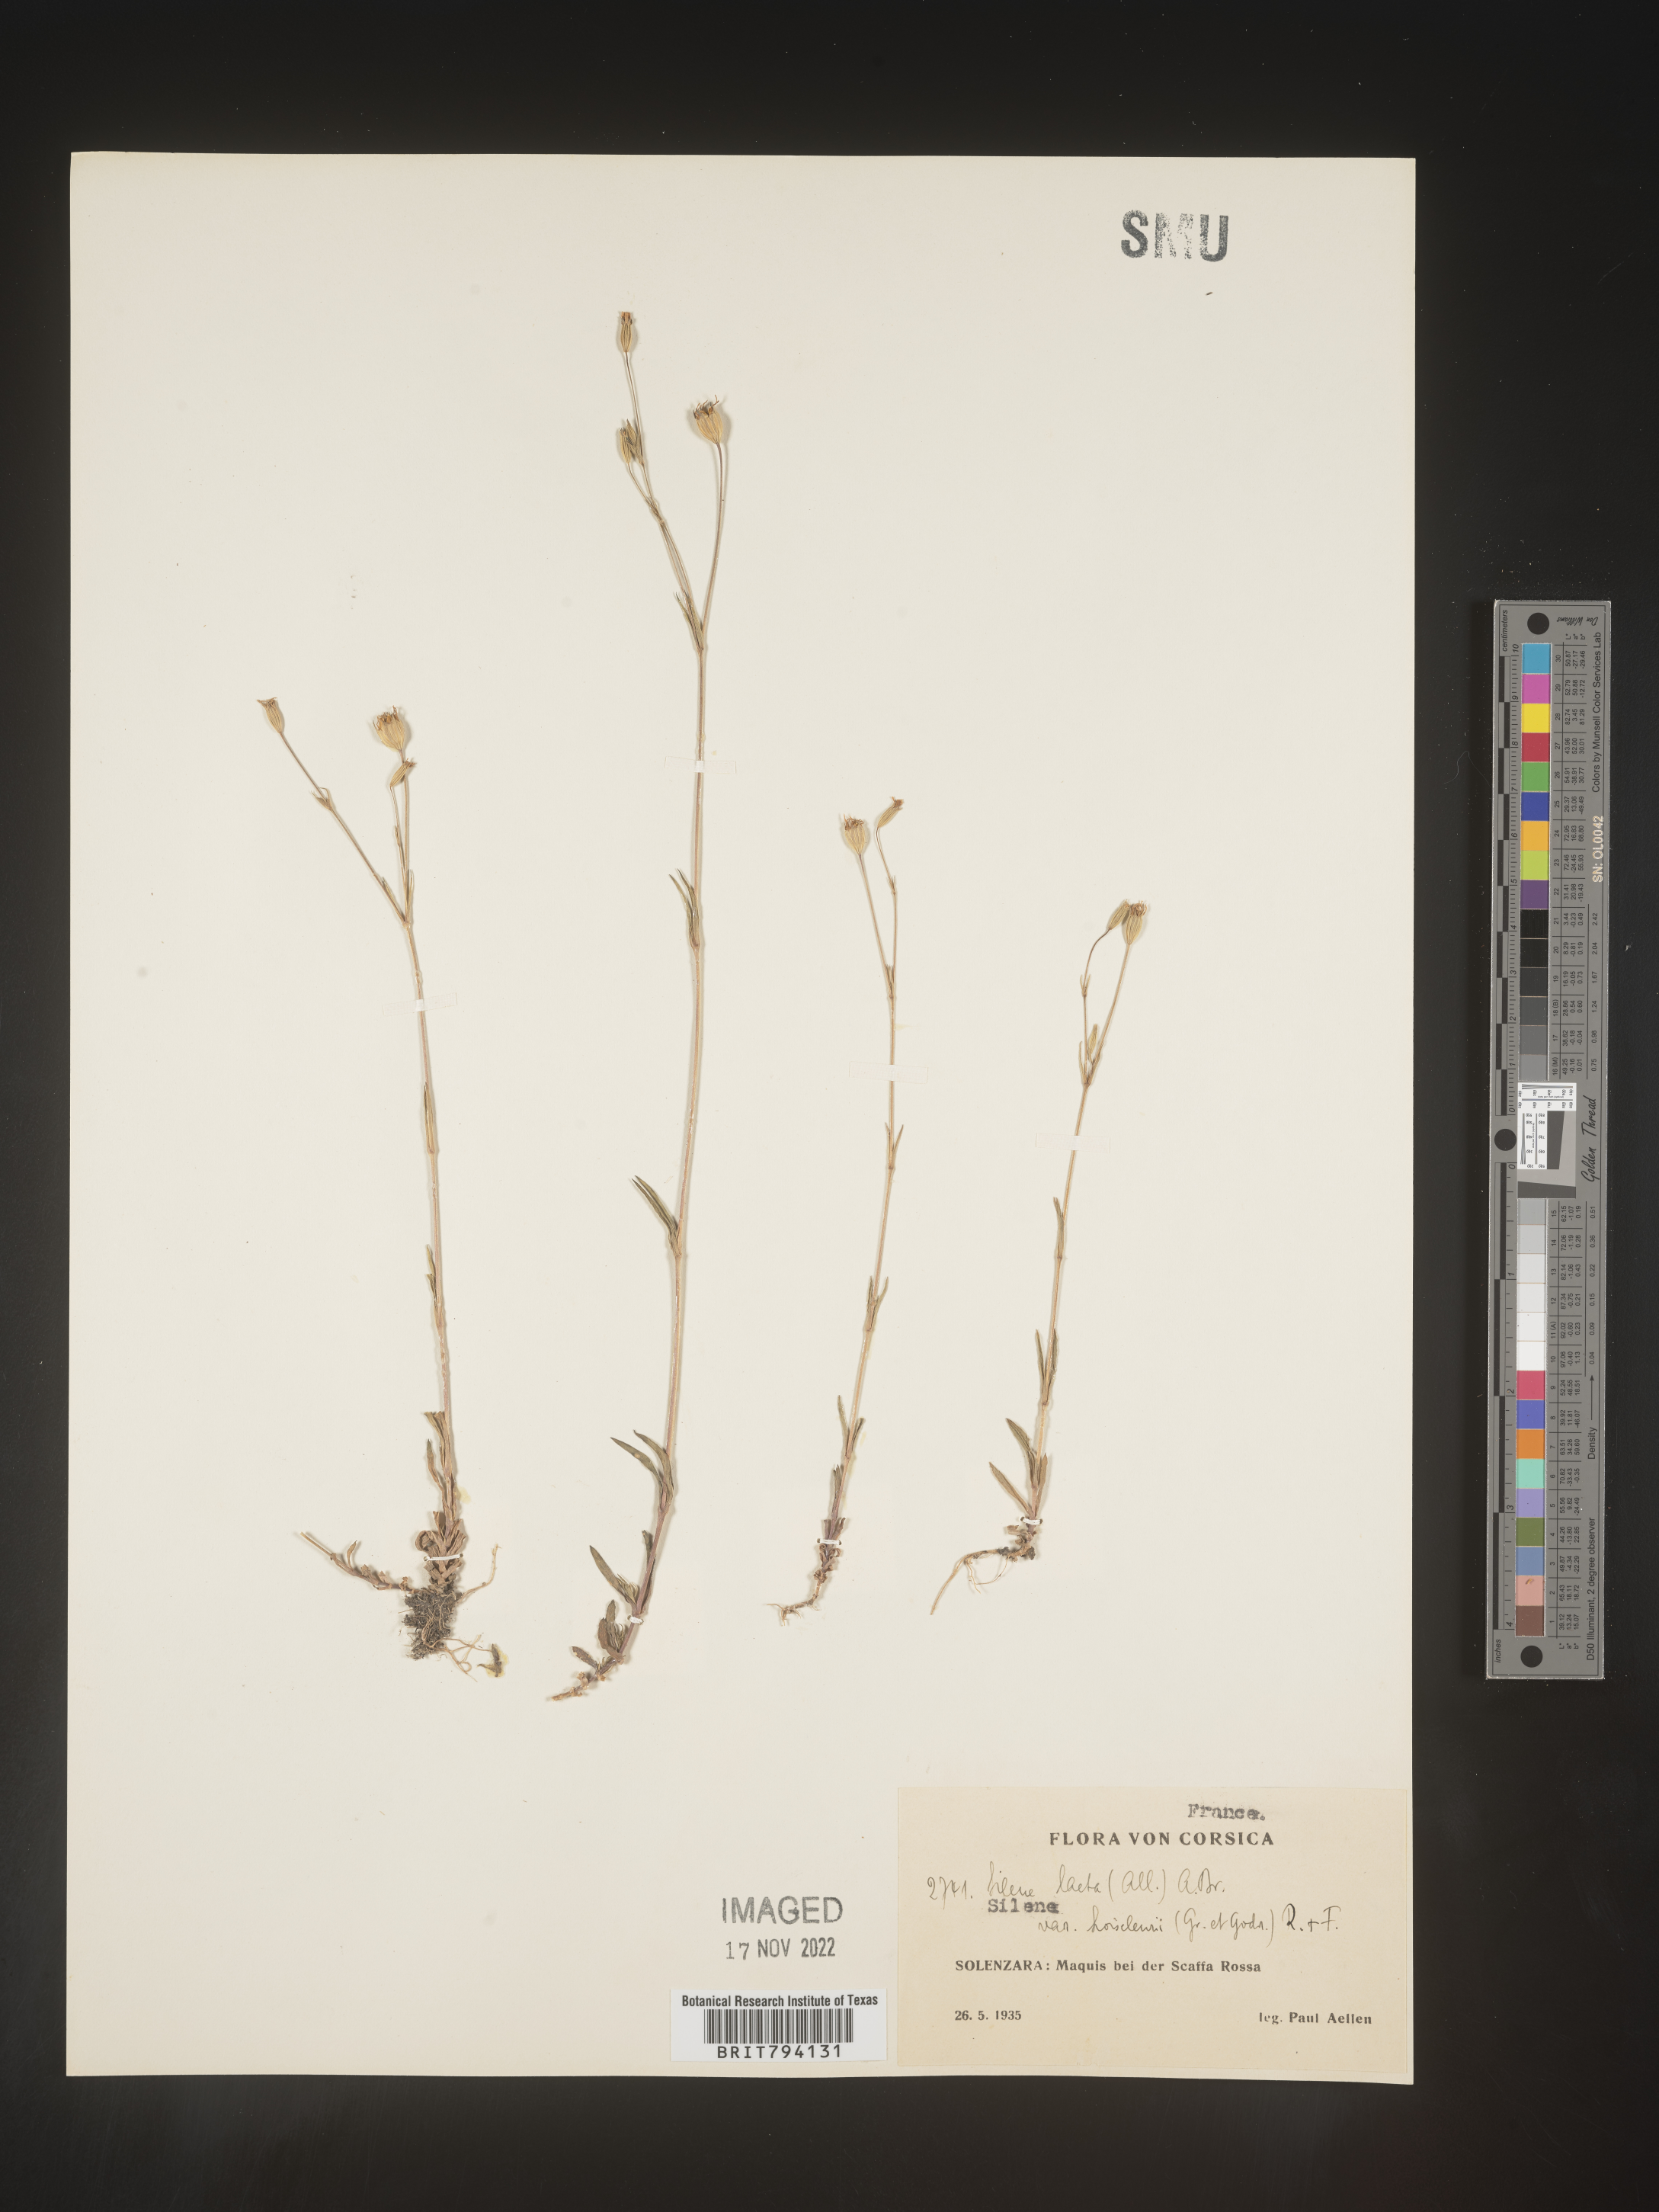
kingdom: Plantae
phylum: Tracheophyta
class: Magnoliopsida
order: Caryophyllales
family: Caryophyllaceae
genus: Eudianthe
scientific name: Eudianthe laeta
